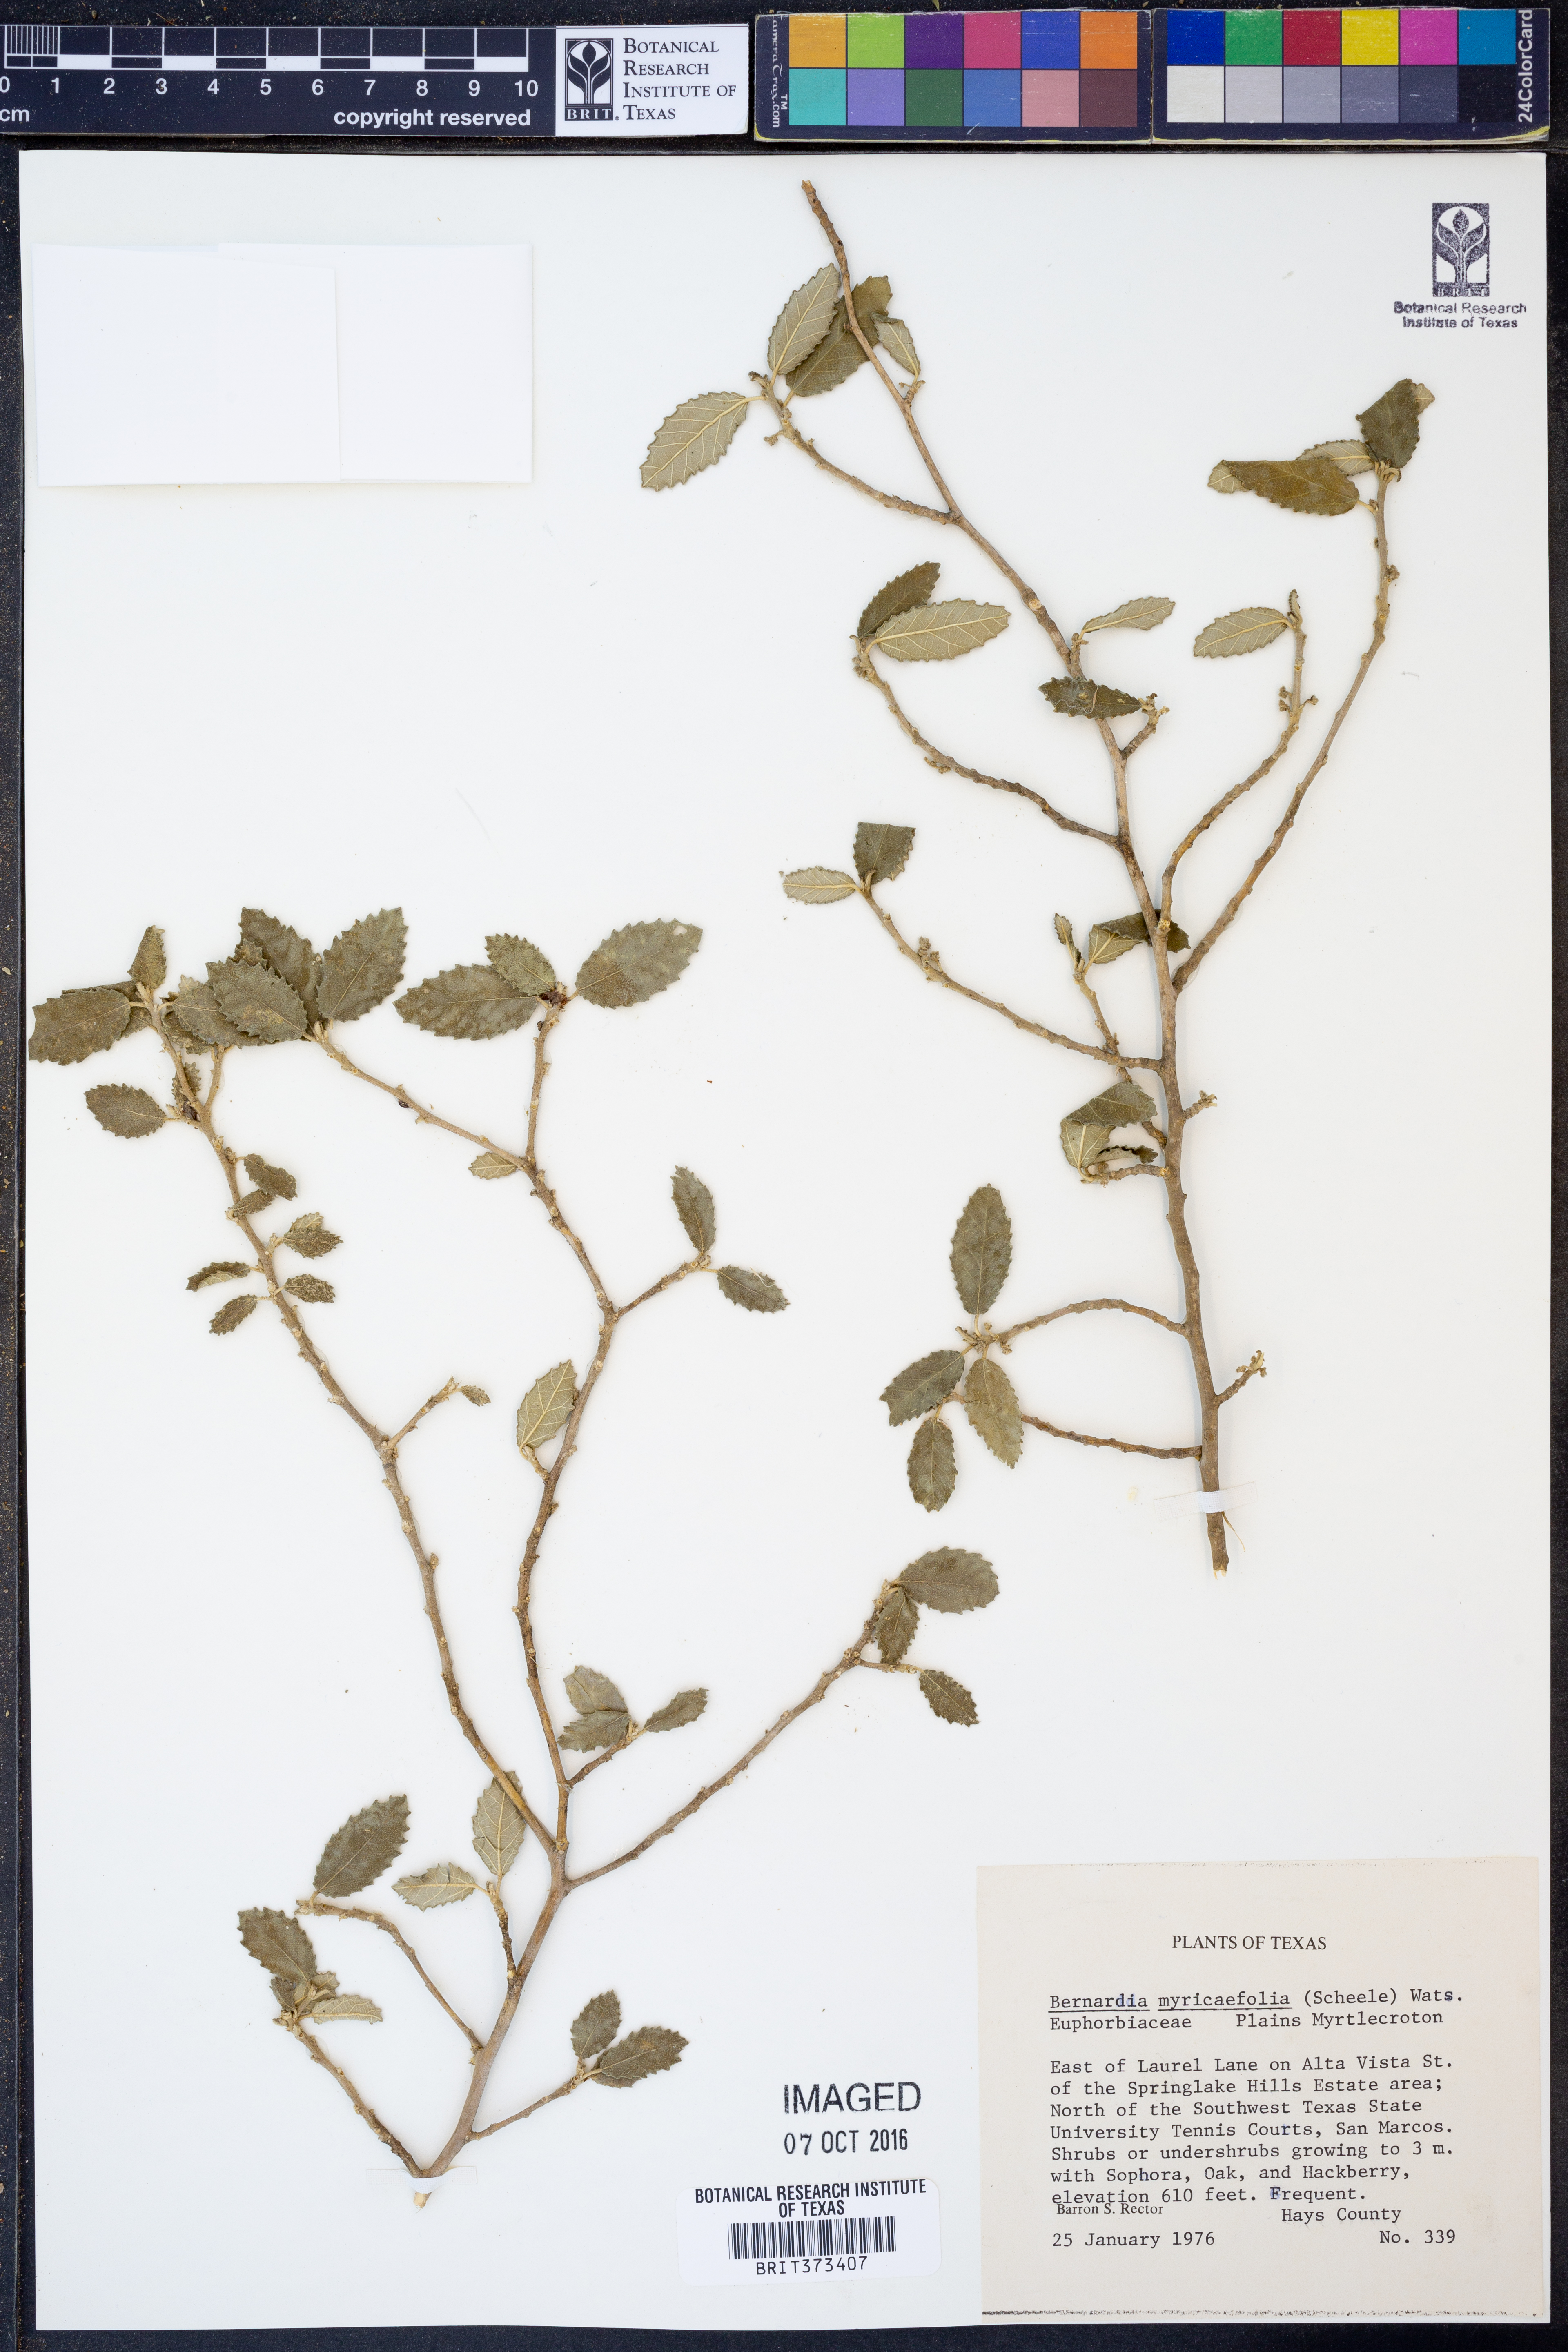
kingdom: Plantae
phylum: Tracheophyta
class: Magnoliopsida
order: Malpighiales
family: Euphorbiaceae
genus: Bernardia
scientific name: Bernardia myricifolia
